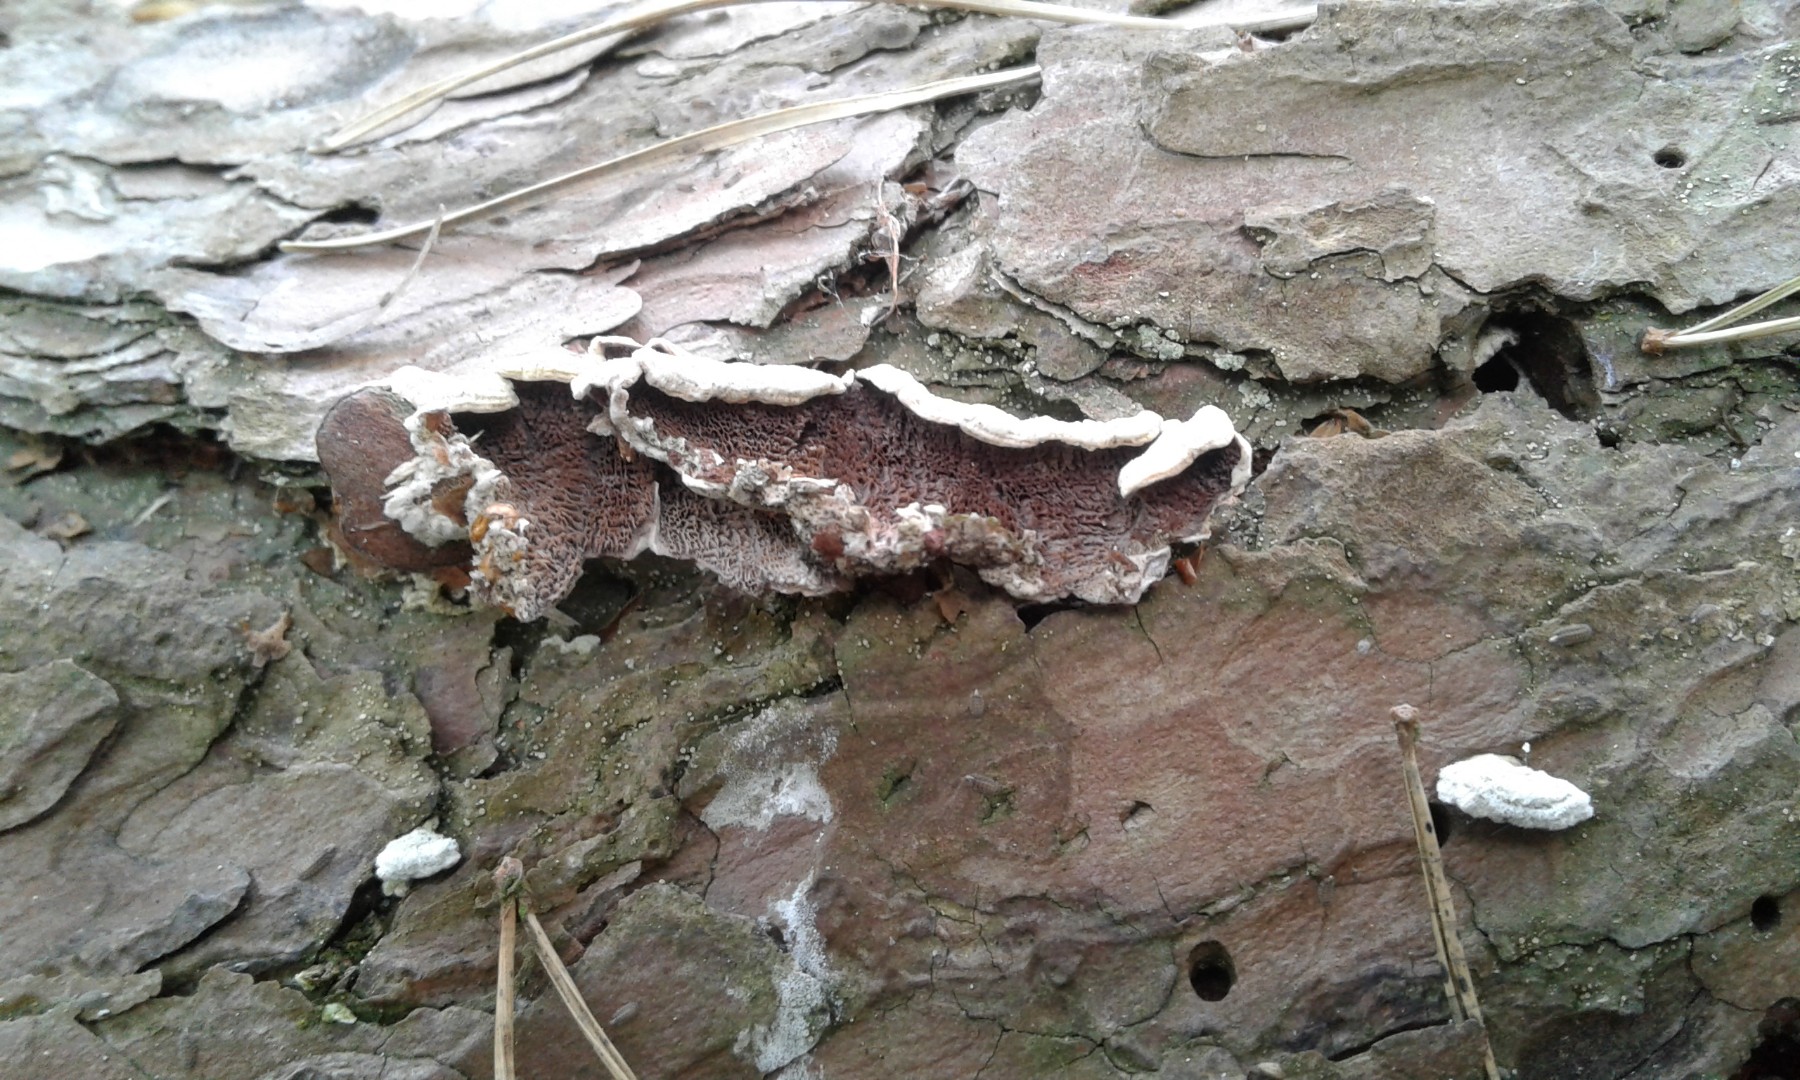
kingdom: Fungi
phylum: Basidiomycota
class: Agaricomycetes
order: Hymenochaetales
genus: Trichaptum
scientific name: Trichaptum fuscoviolaceum
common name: tandet violporesvamp
